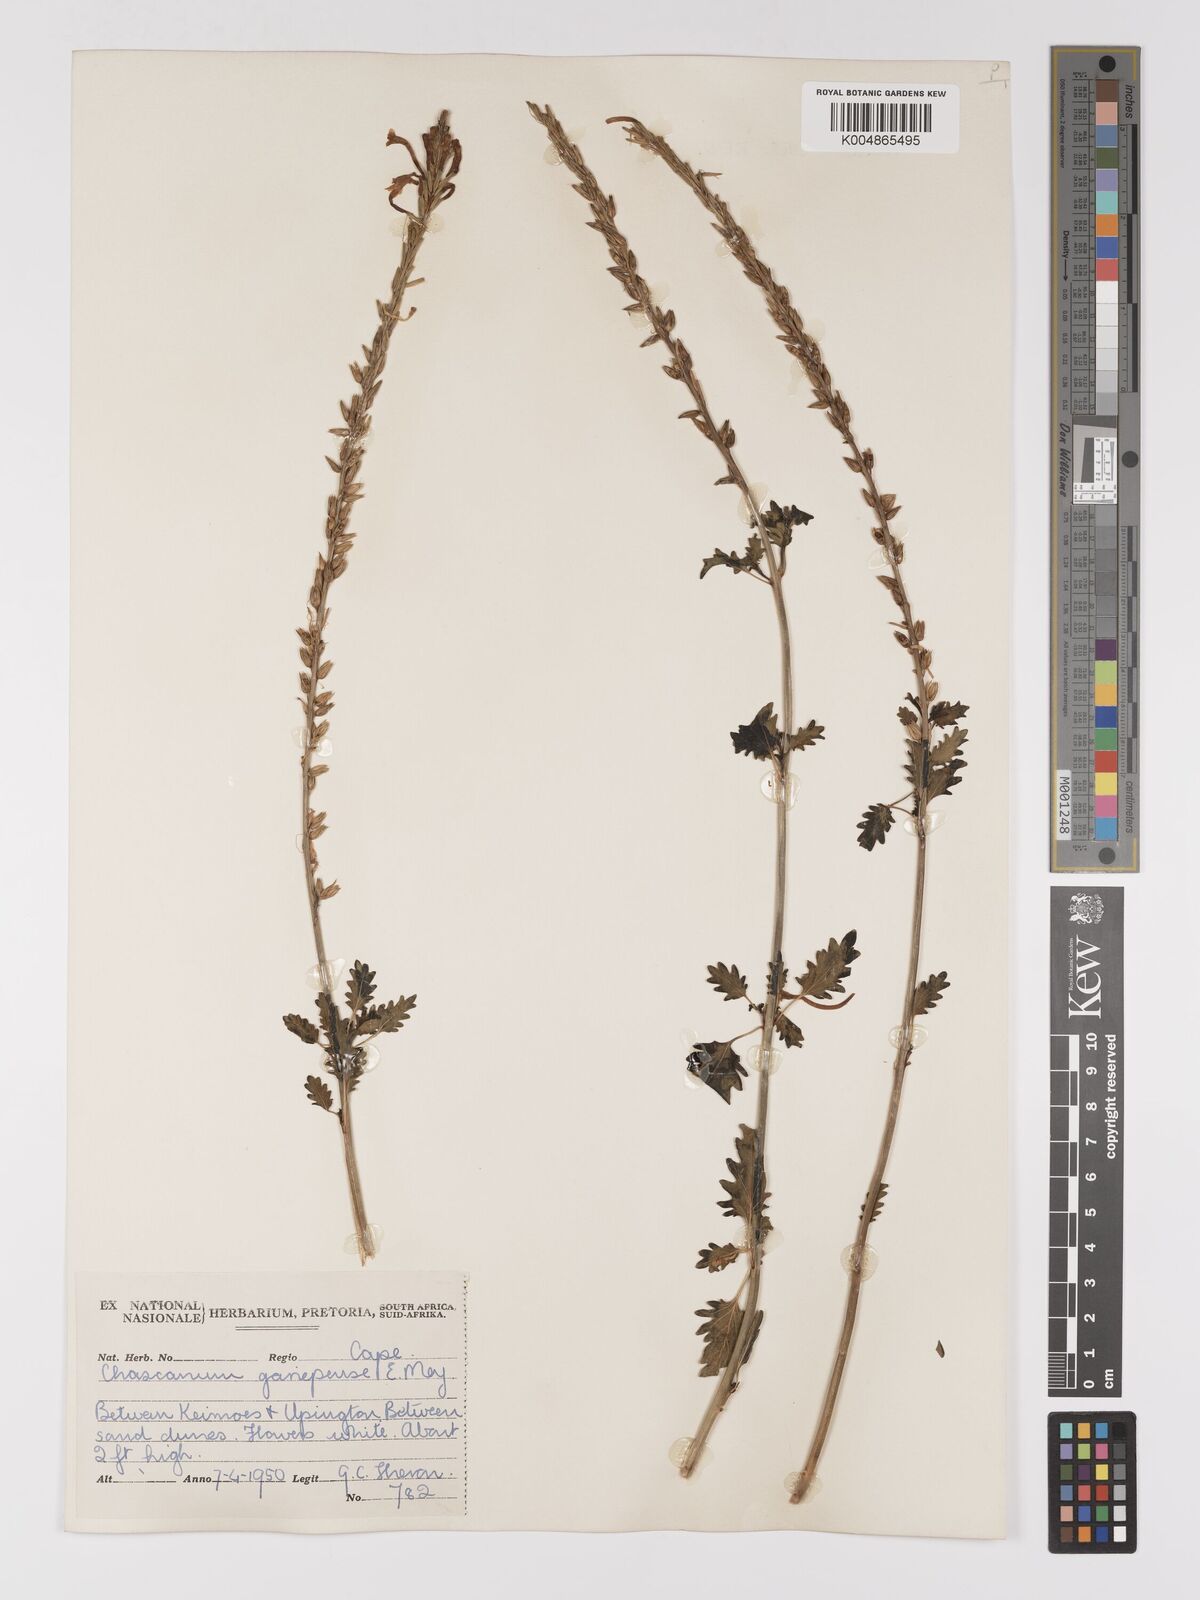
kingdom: Plantae
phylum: Tracheophyta
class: Magnoliopsida
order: Lamiales
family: Verbenaceae
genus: Chascanum
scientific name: Chascanum garipense
